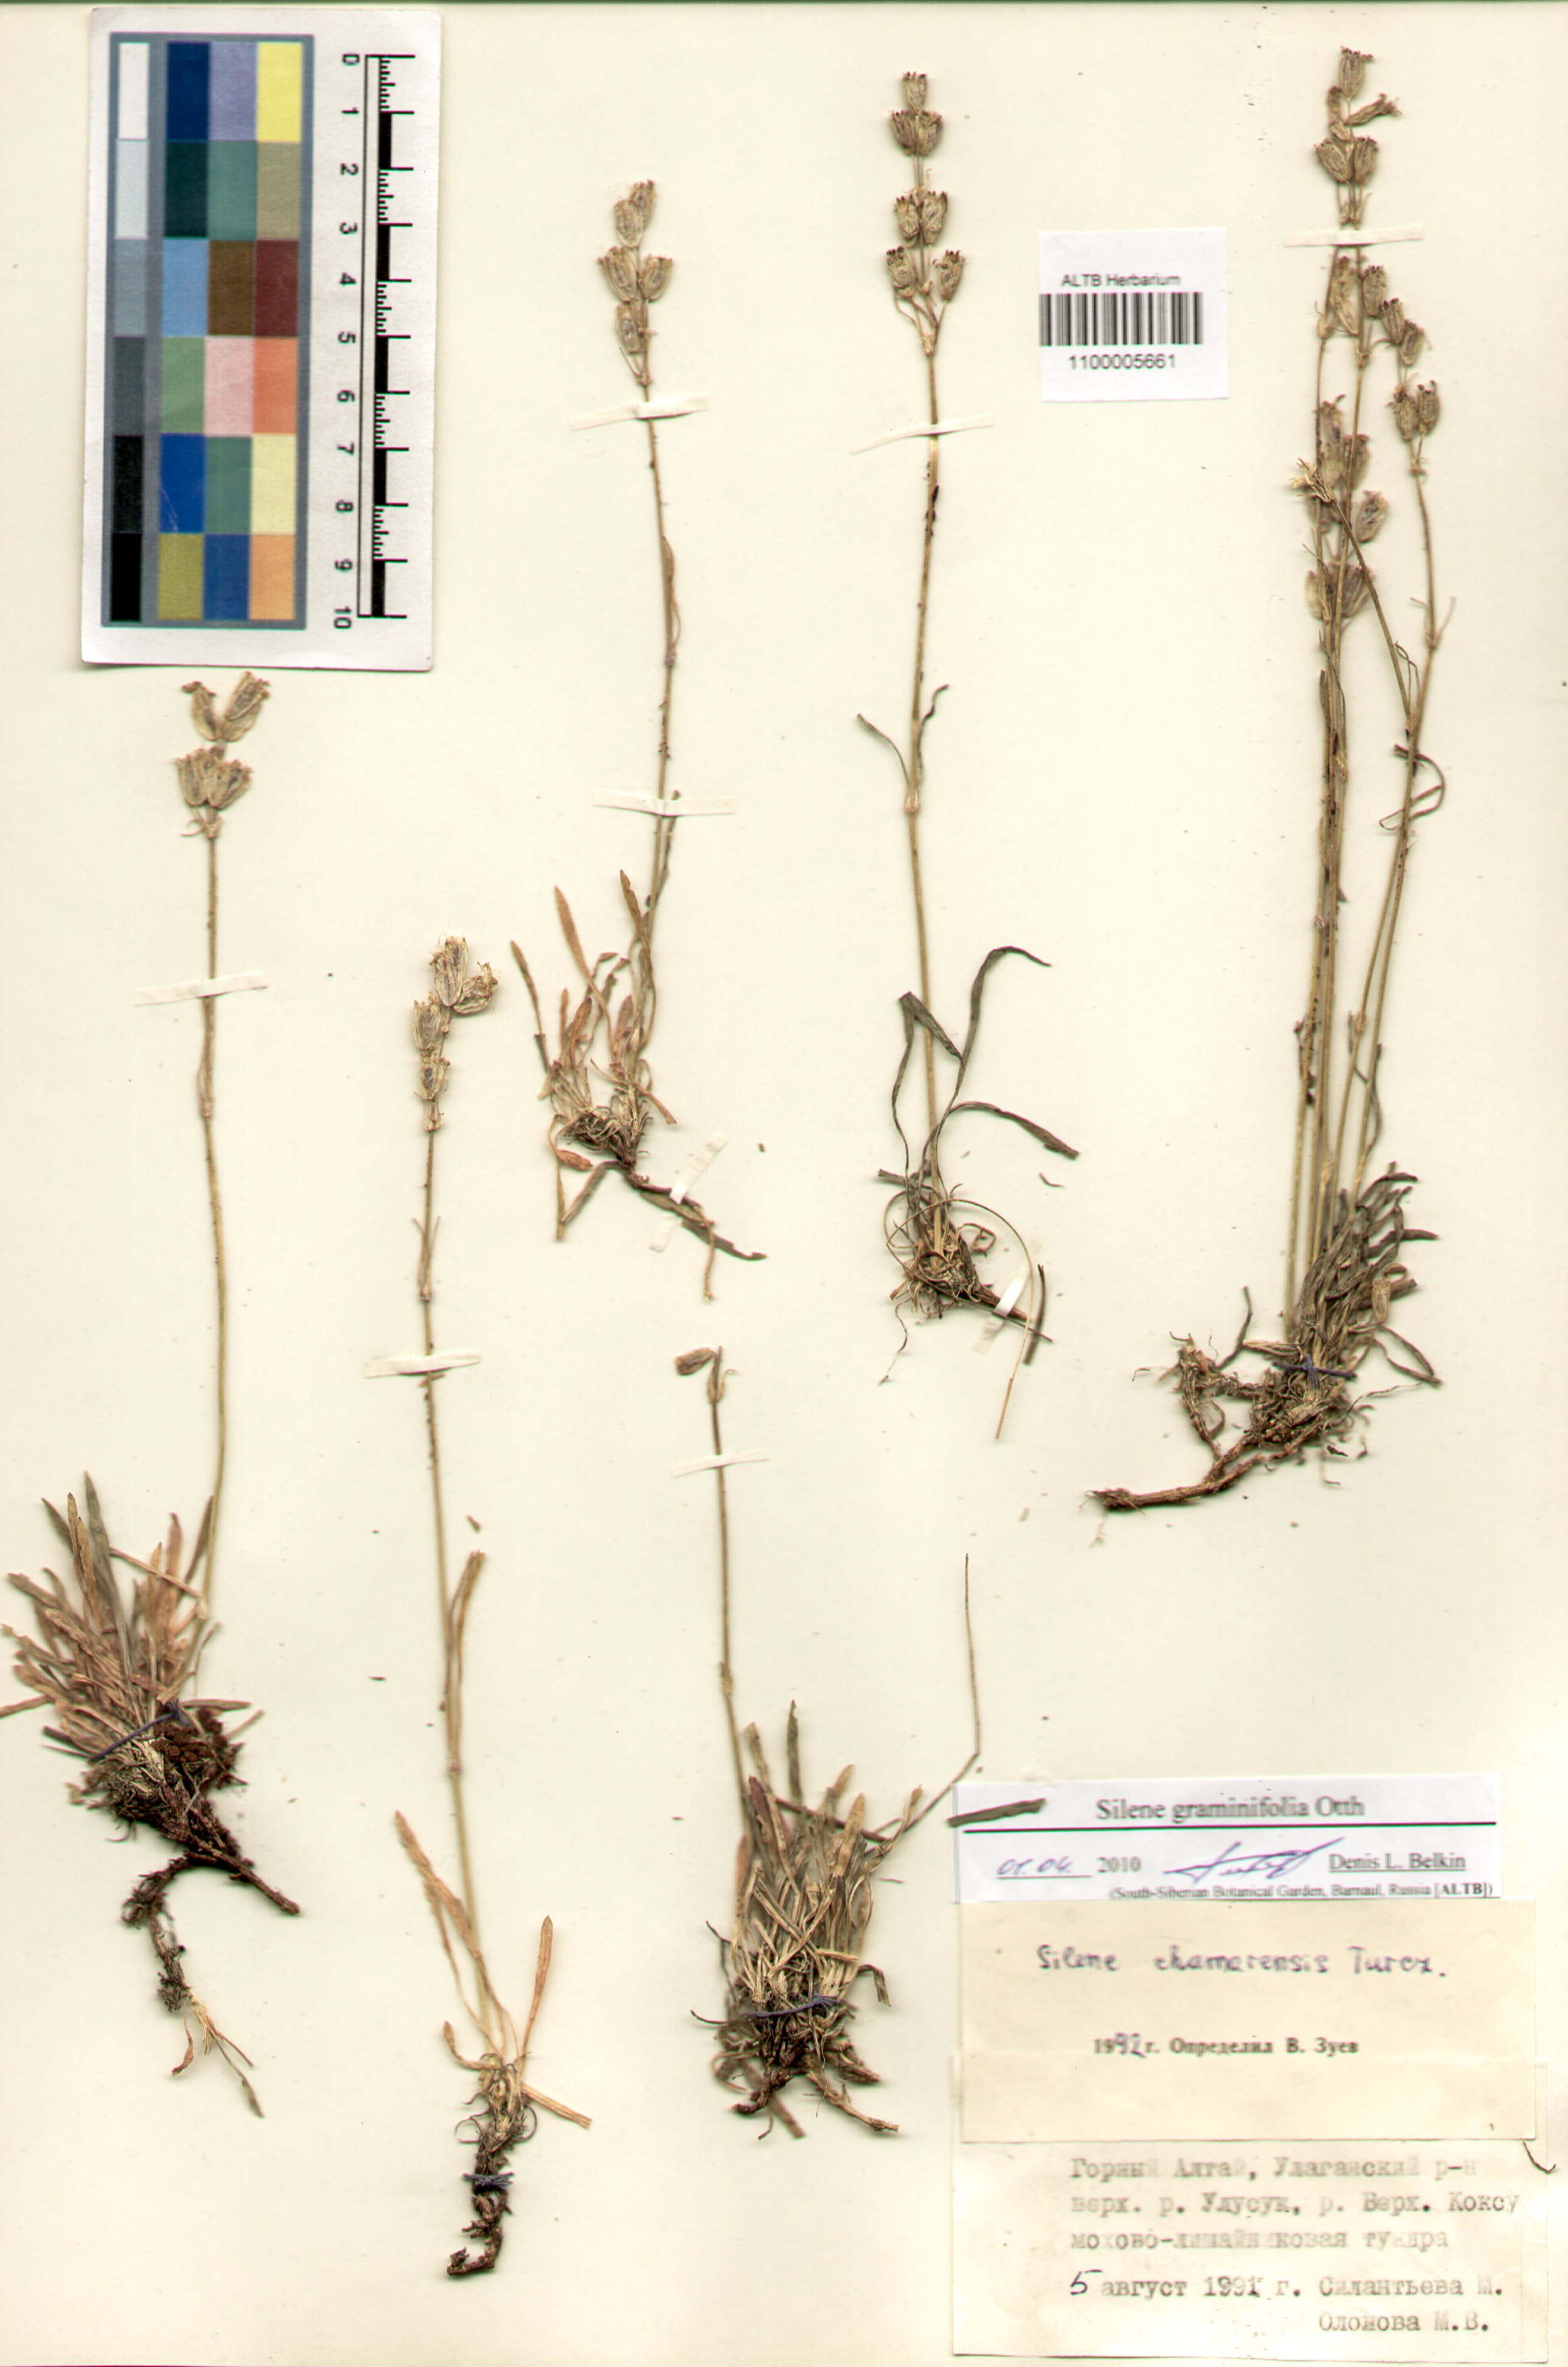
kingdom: Plantae
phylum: Tracheophyta
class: Magnoliopsida
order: Caryophyllales
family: Caryophyllaceae
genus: Silene
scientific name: Silene graminifolia
